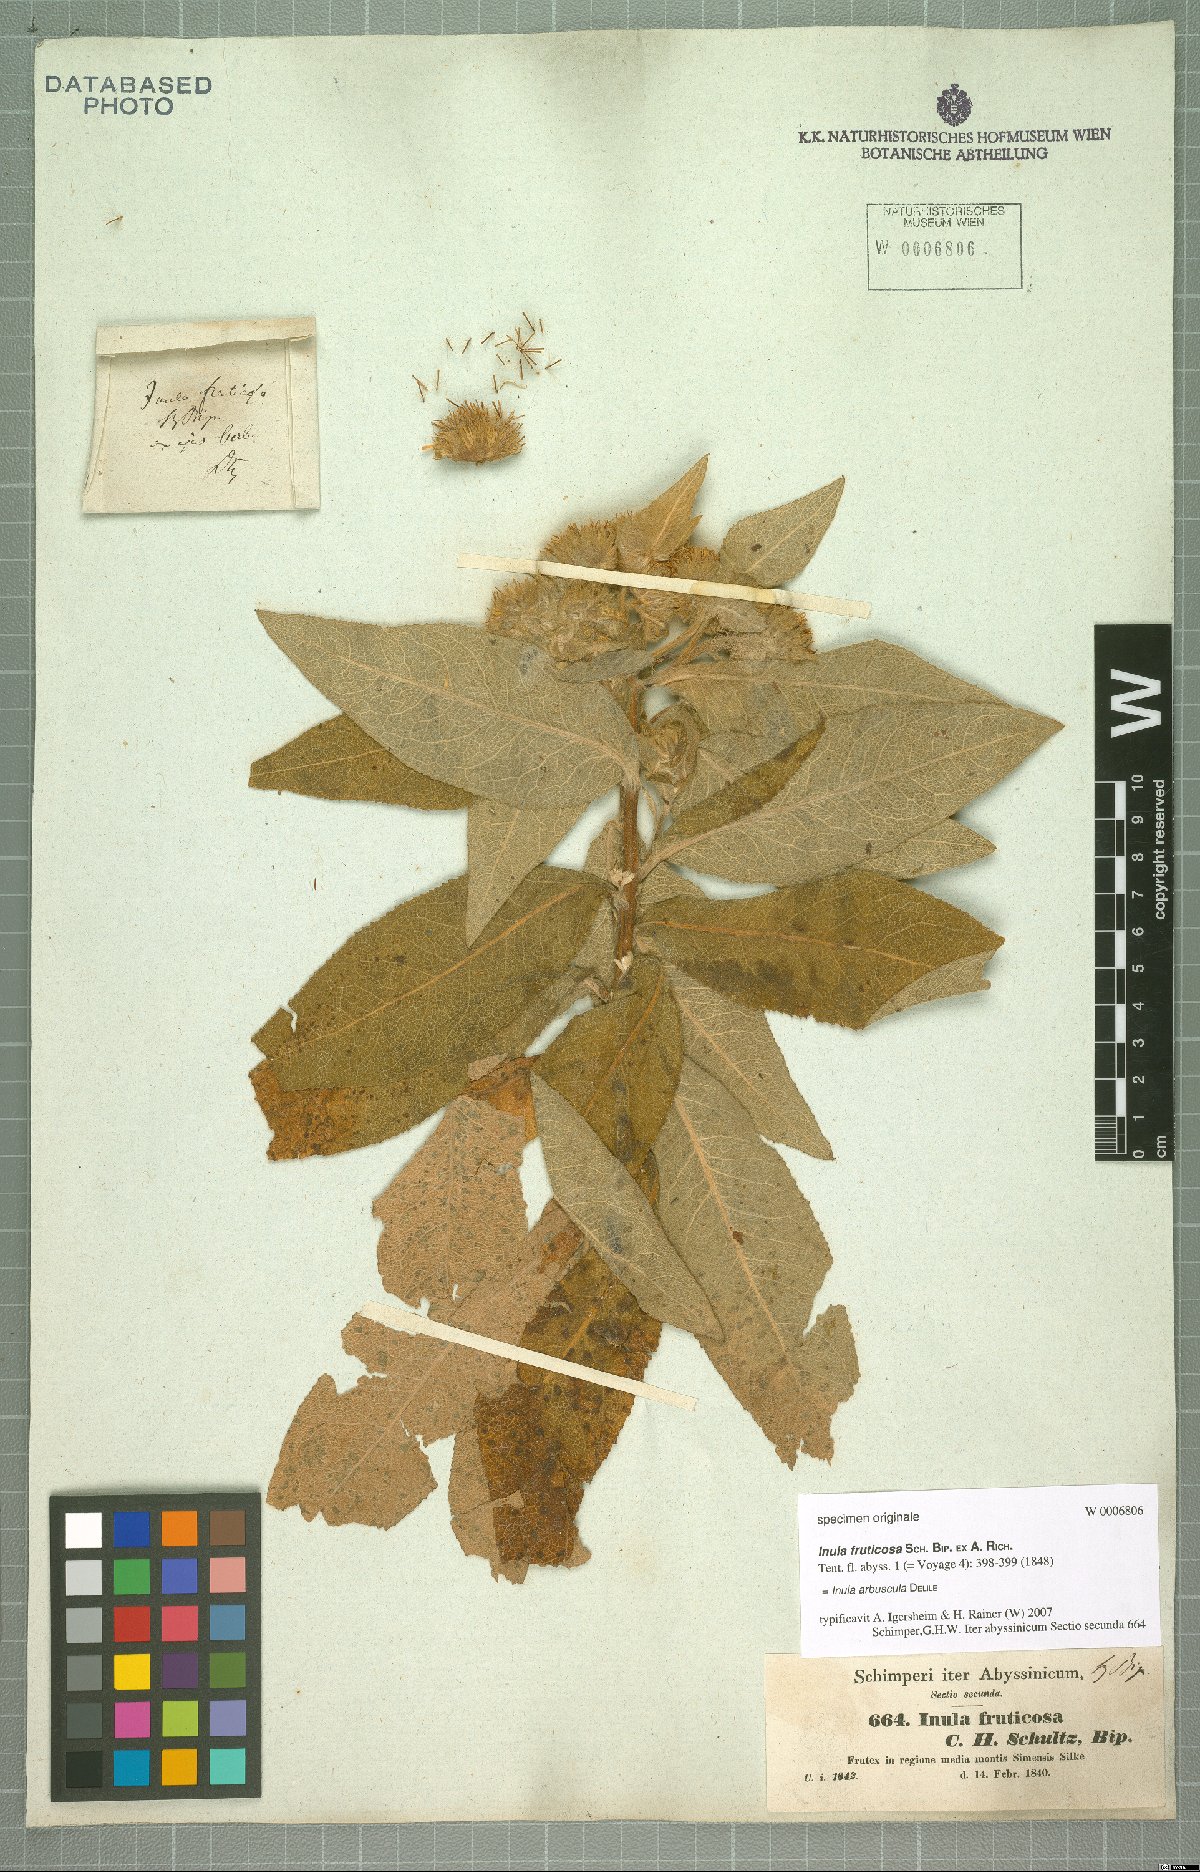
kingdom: Plantae
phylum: Tracheophyta
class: Magnoliopsida
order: Asterales
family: Asteraceae
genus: Inula
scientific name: Inula arbuscula
